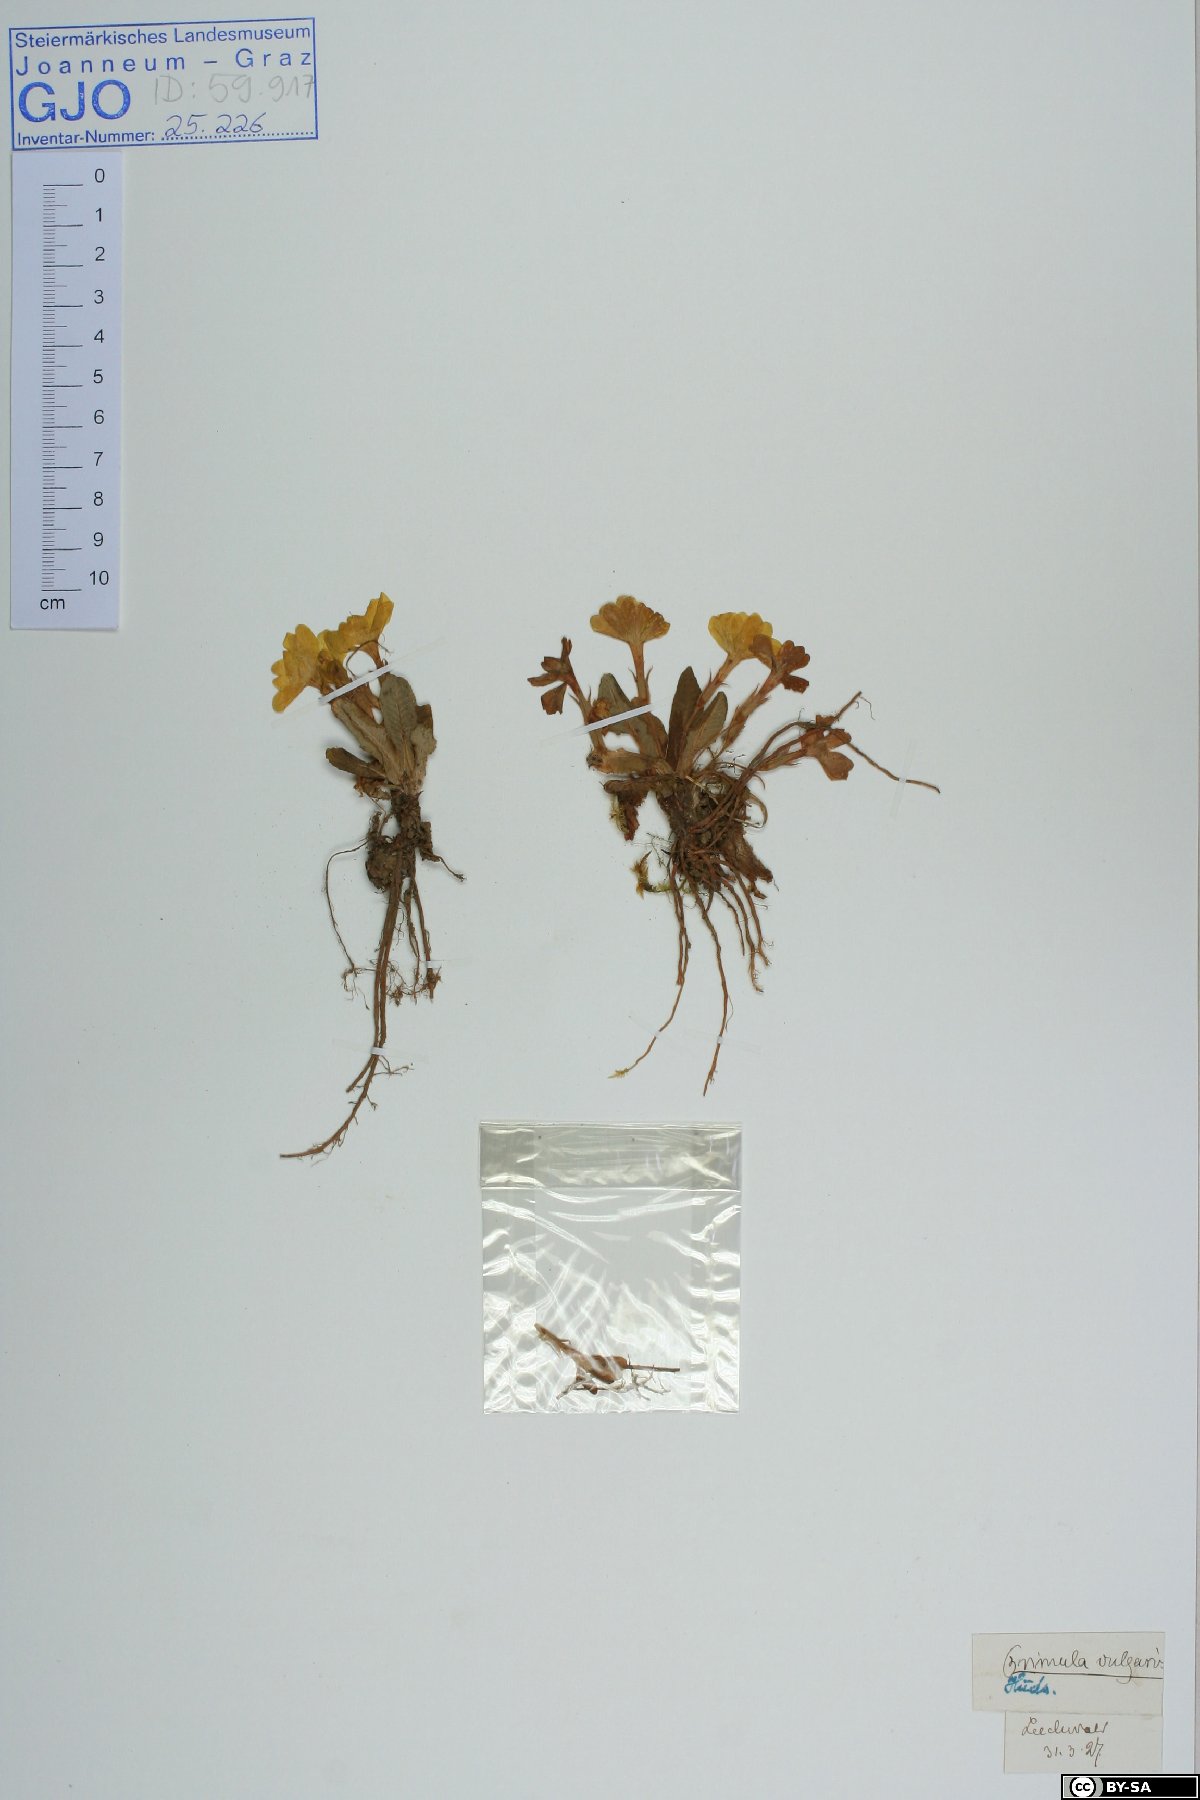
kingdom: Plantae
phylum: Tracheophyta
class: Magnoliopsida
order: Ericales
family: Primulaceae
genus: Primula
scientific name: Primula vulgaris
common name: Primrose
